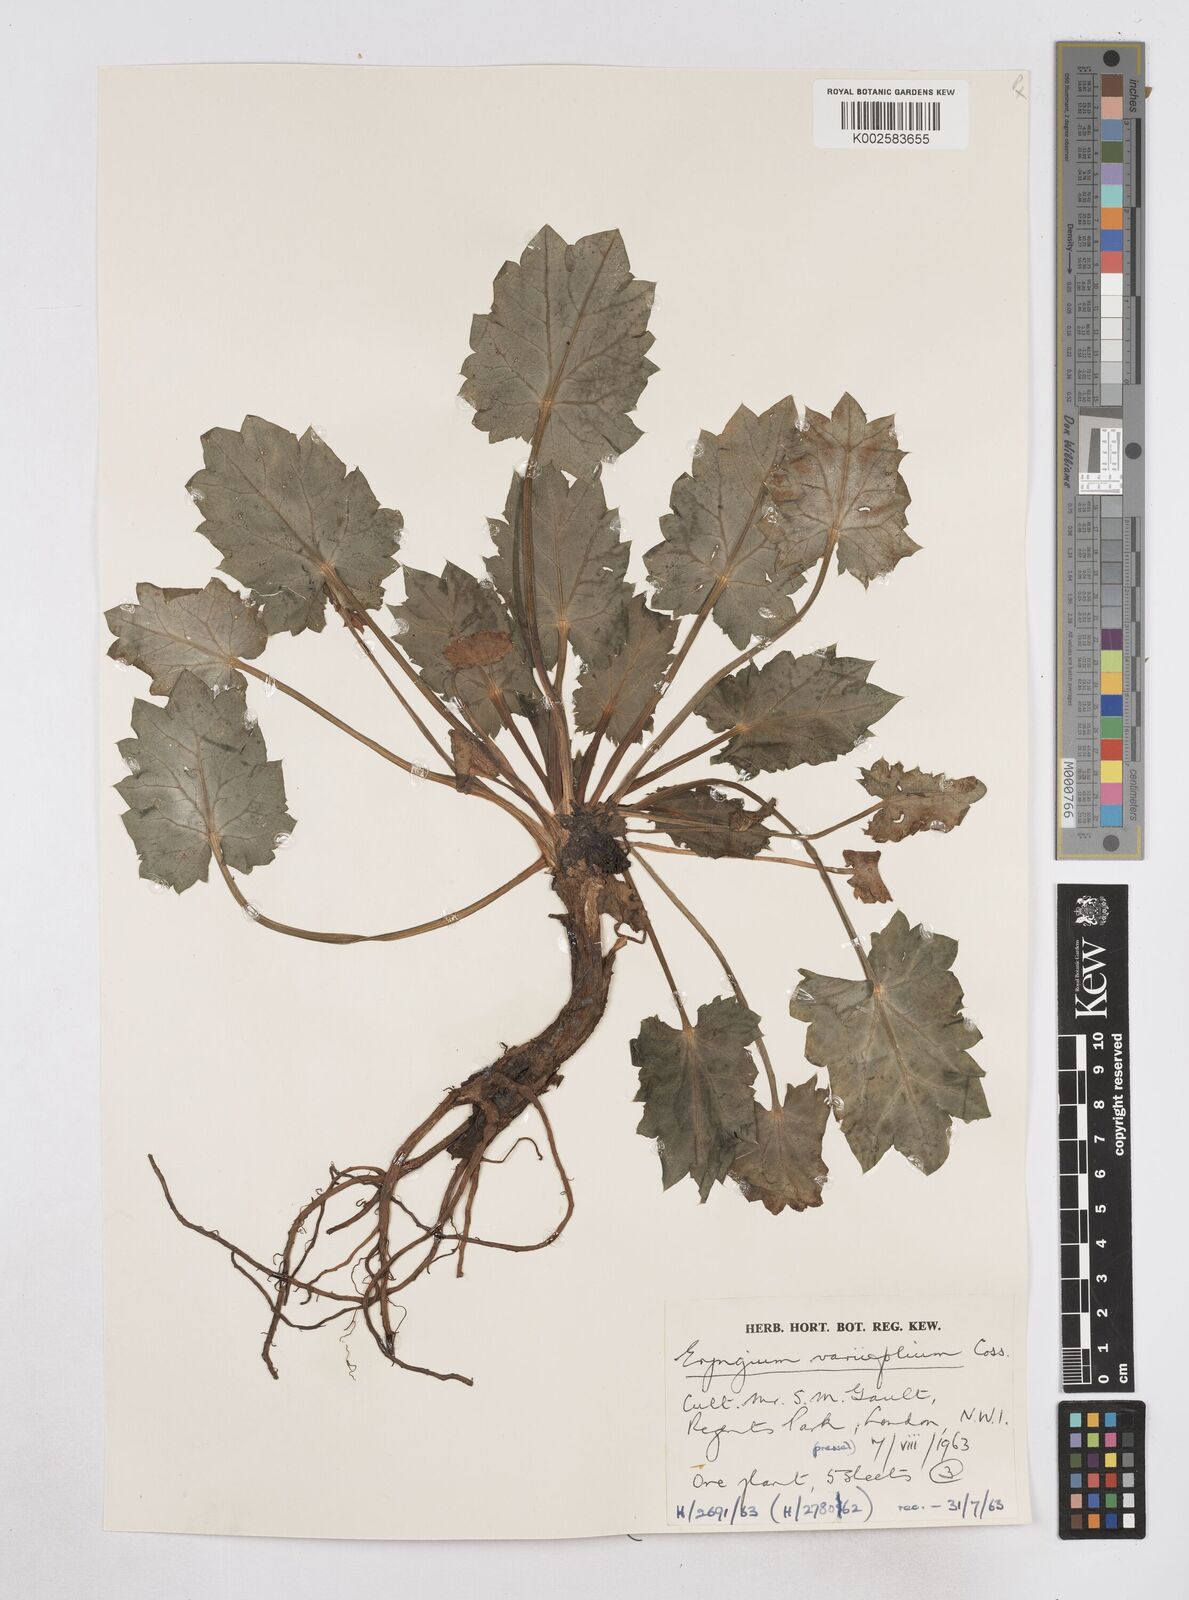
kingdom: Plantae
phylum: Tracheophyta
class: Magnoliopsida
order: Apiales
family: Apiaceae
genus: Eryngium
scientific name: Eryngium variifolium
